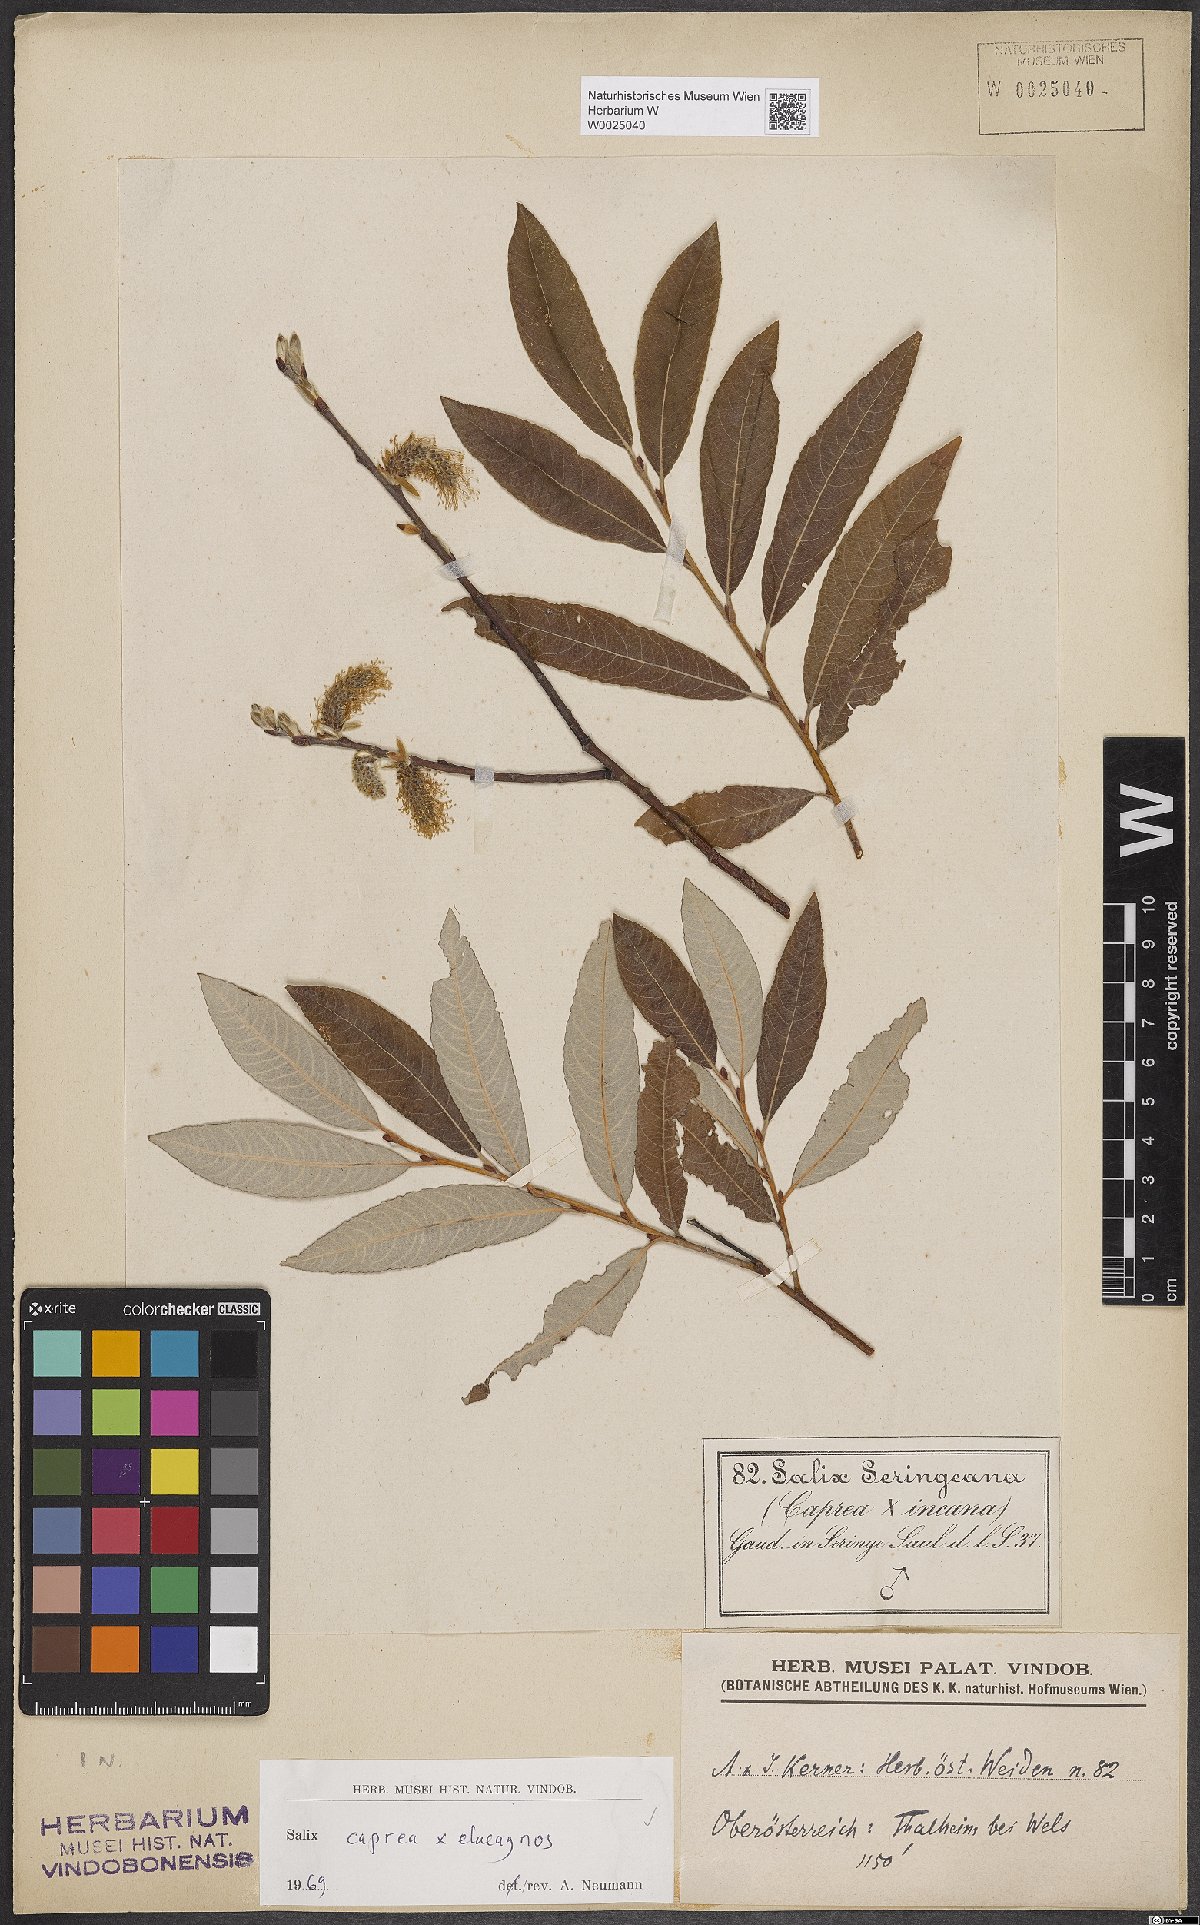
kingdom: Plantae
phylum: Tracheophyta
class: Magnoliopsida
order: Malpighiales
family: Salicaceae
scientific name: Salicaceae
